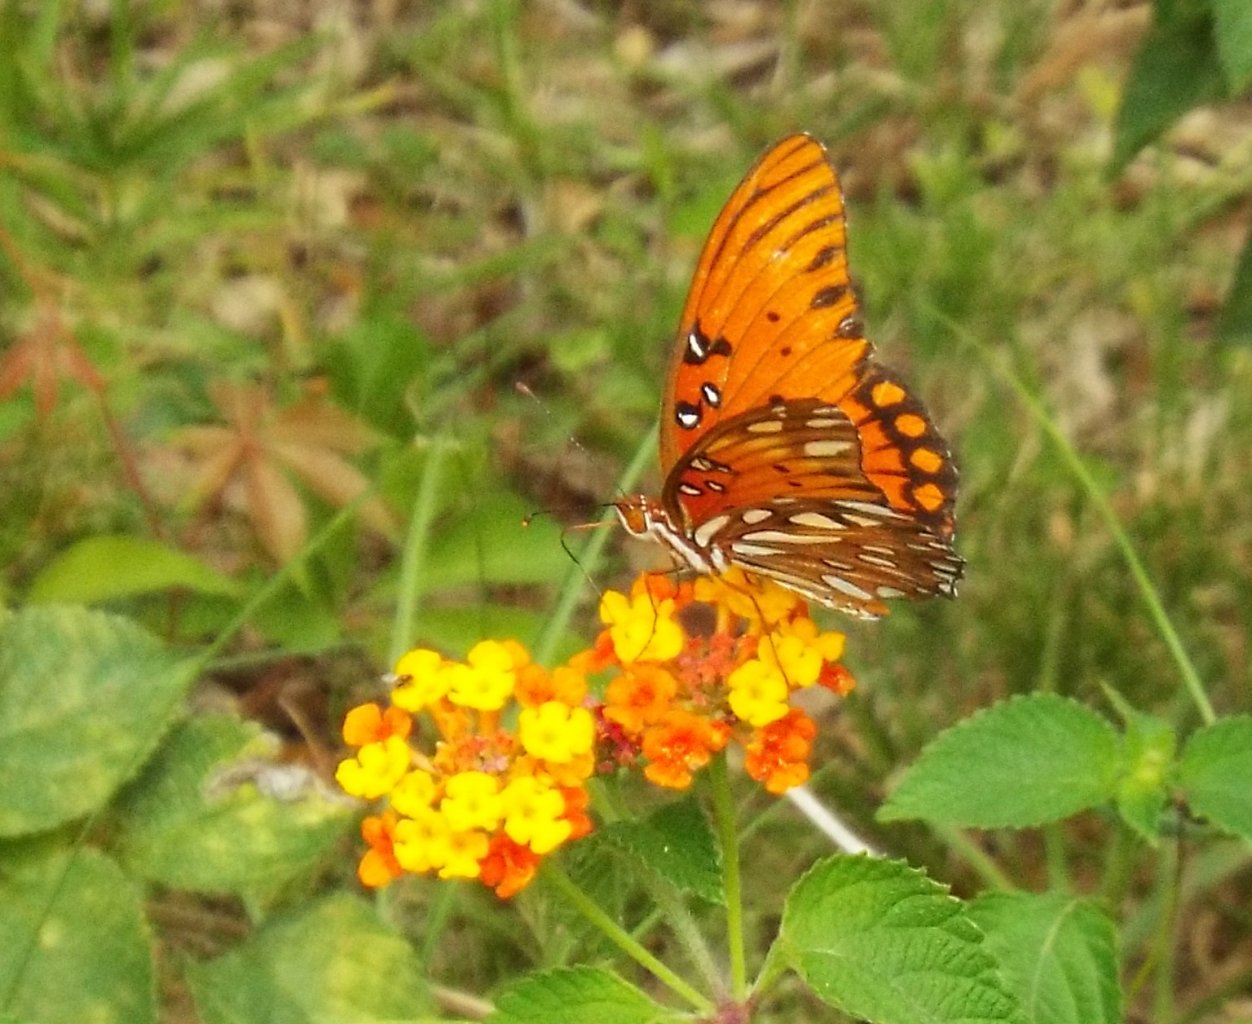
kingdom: Animalia
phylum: Arthropoda
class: Insecta
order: Lepidoptera
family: Nymphalidae
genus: Dione
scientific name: Dione vanillae
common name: Gulf Fritillary
